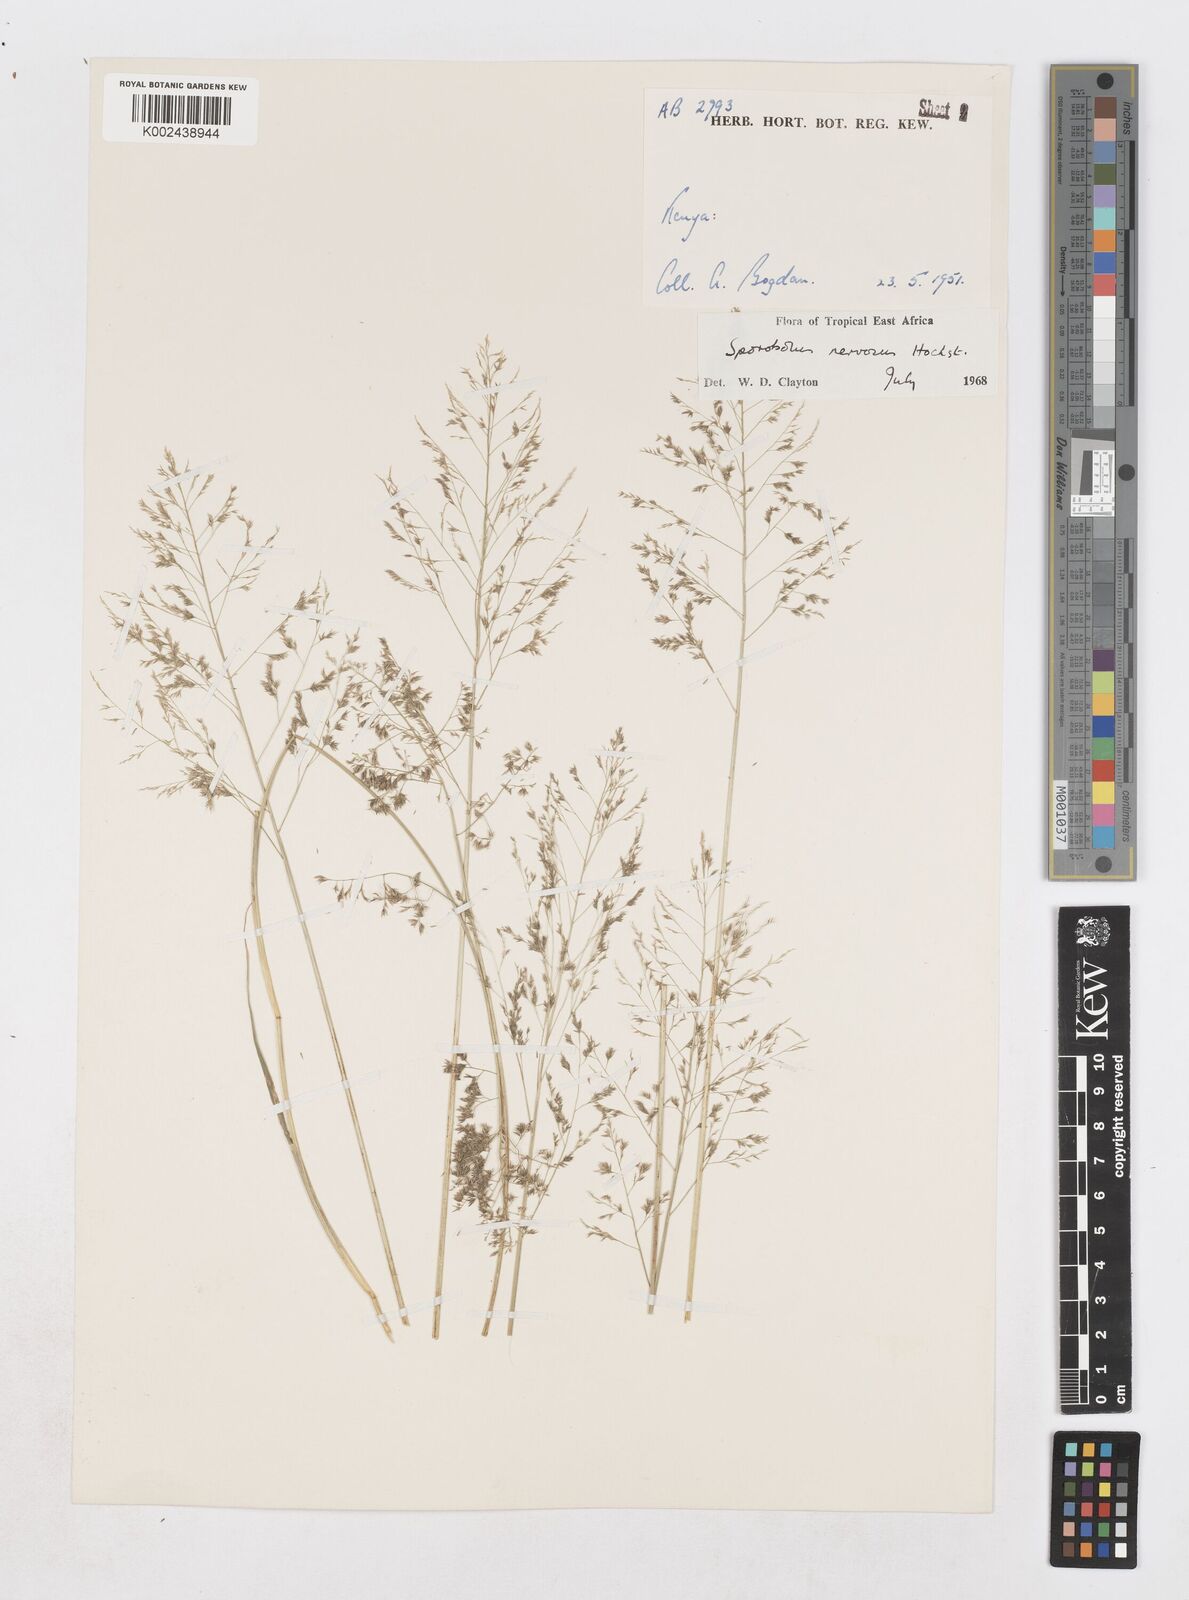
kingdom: Plantae
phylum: Tracheophyta
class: Liliopsida
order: Poales
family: Poaceae
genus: Sporobolus
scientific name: Sporobolus nervosus
